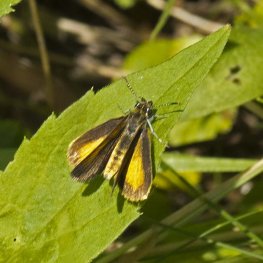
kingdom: Animalia
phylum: Arthropoda
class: Insecta
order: Lepidoptera
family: Hesperiidae
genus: Ancyloxypha
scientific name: Ancyloxypha numitor
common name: Least Skipper
